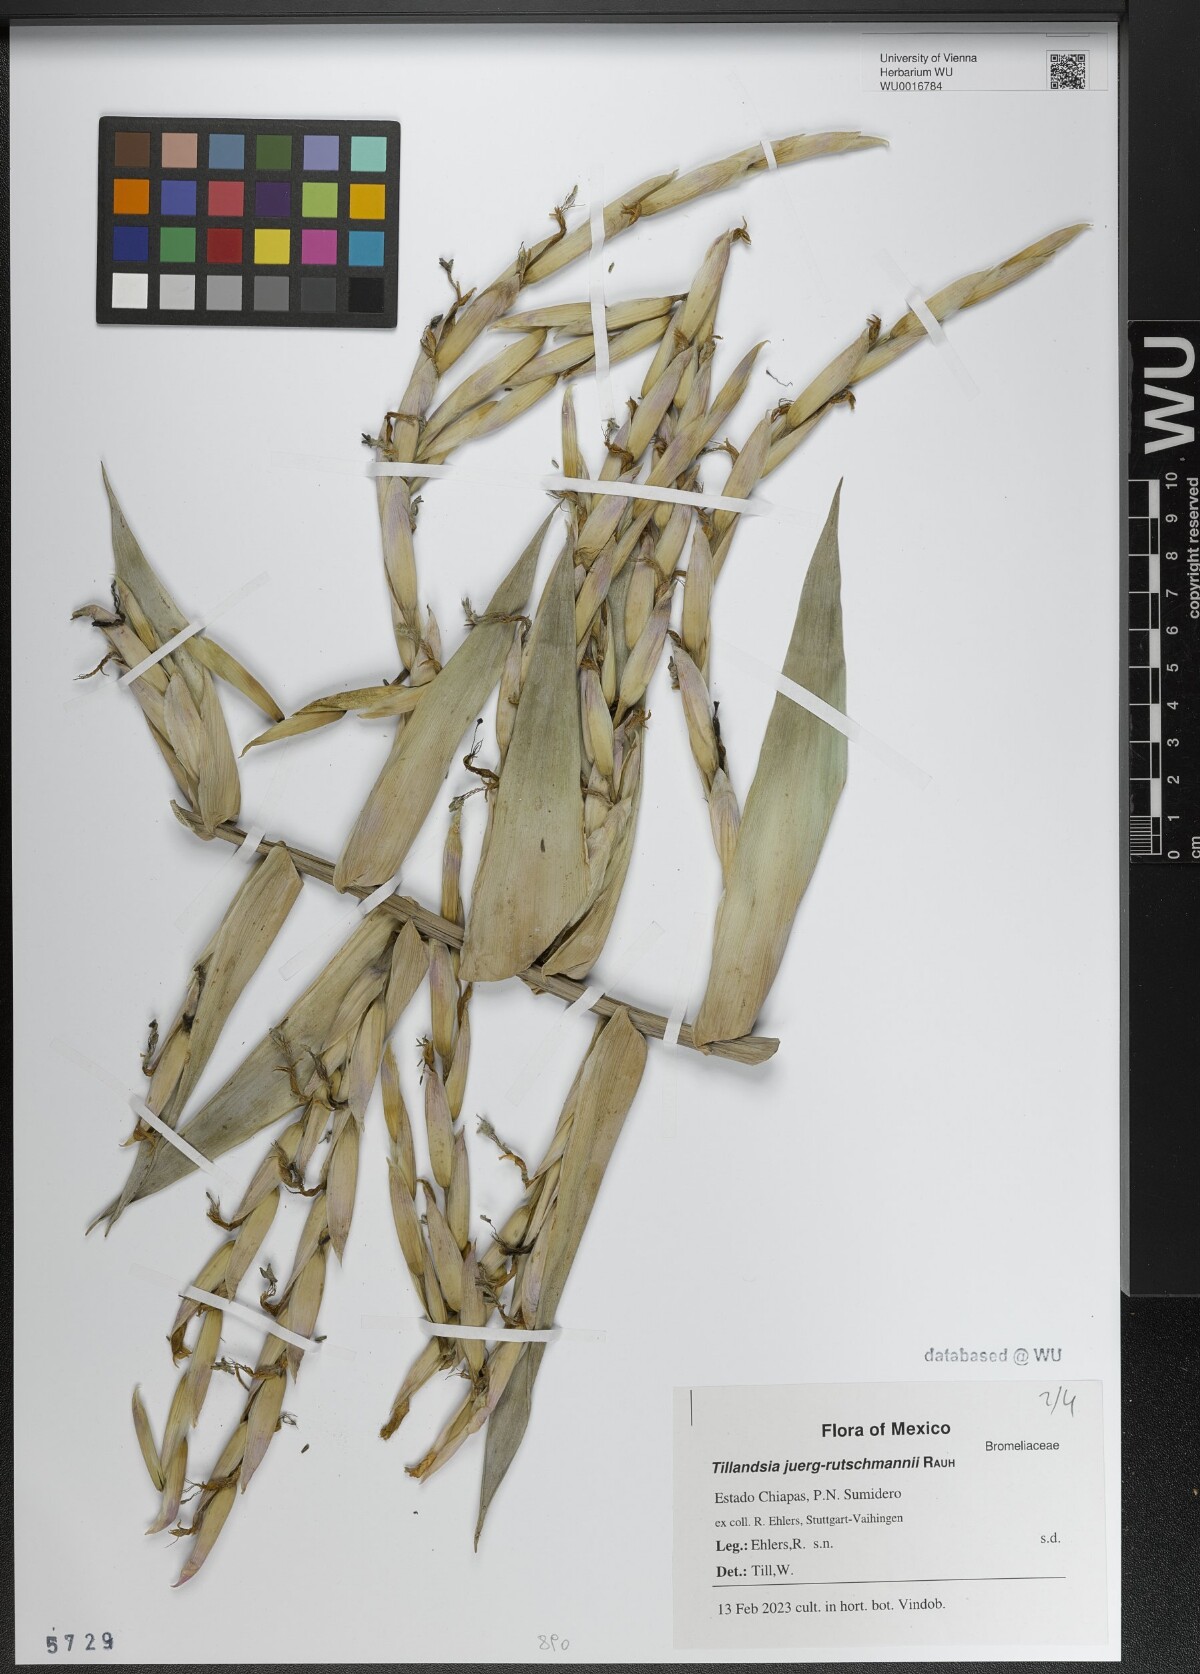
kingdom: Plantae
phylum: Tracheophyta
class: Liliopsida
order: Poales
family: Bromeliaceae
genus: Tillandsia
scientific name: Tillandsia juerg-rutschmannii
